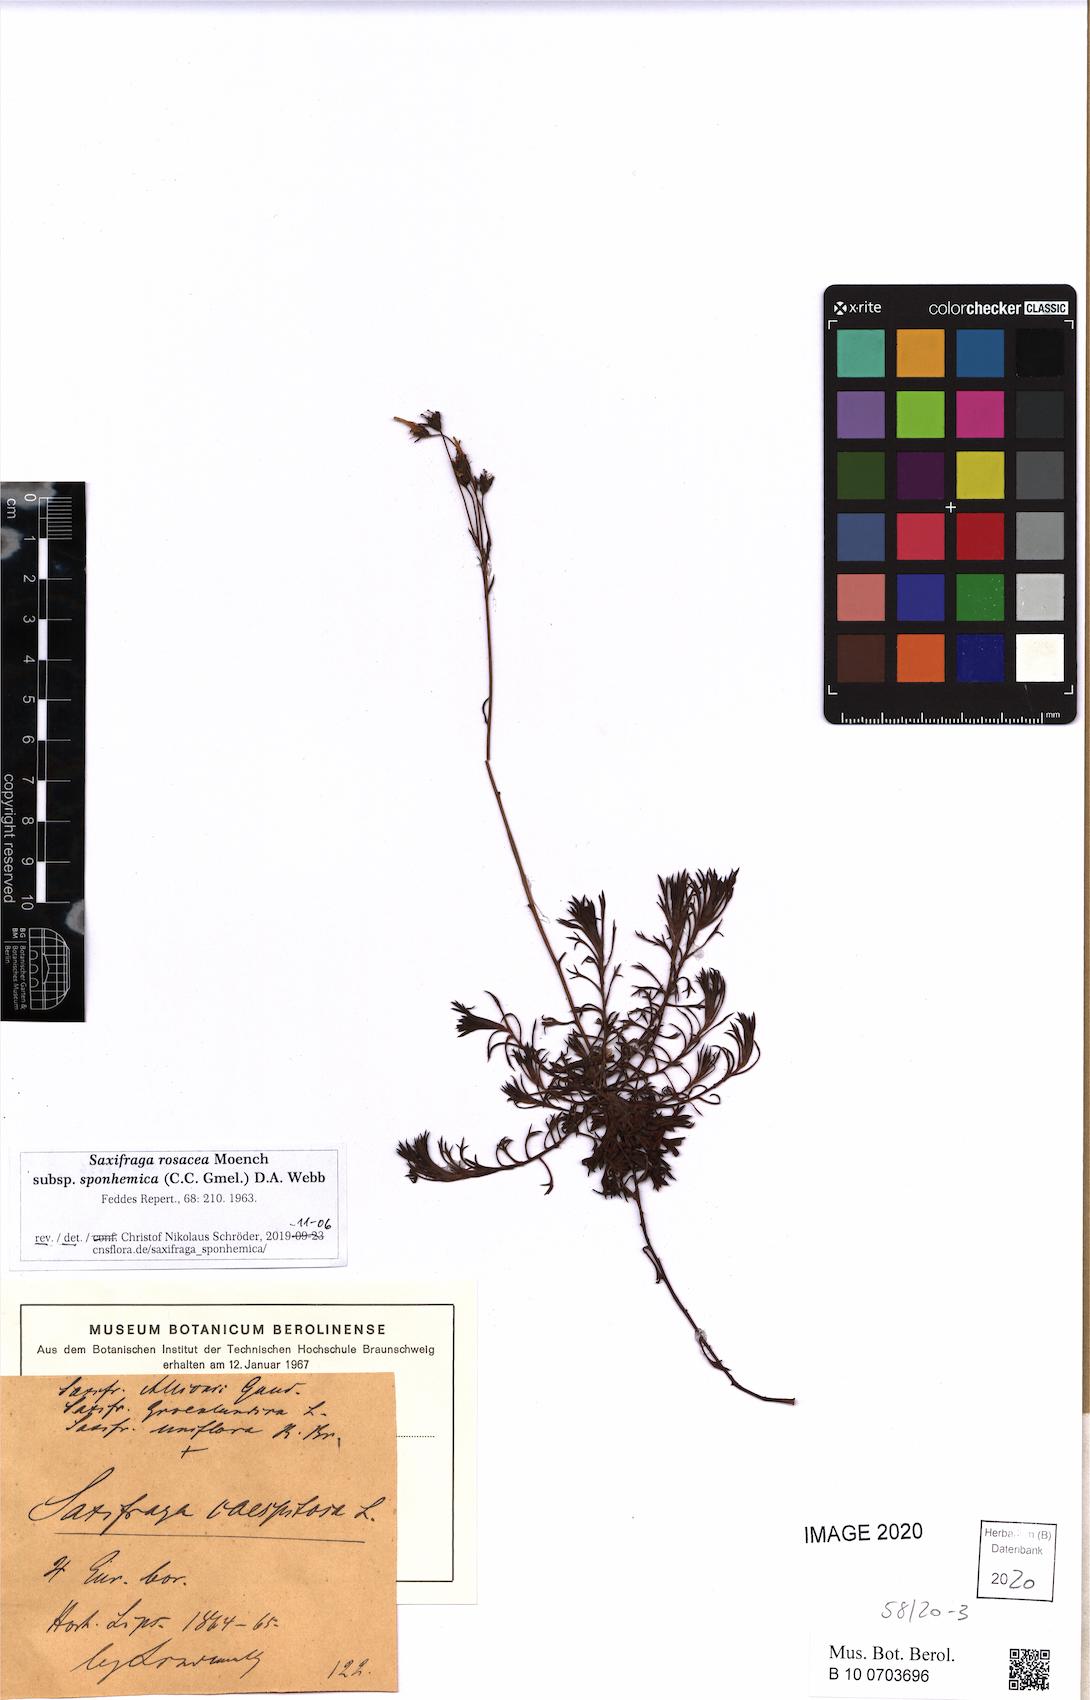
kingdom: Plantae
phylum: Tracheophyta
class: Magnoliopsida
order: Saxifragales
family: Saxifragaceae
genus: Saxifraga
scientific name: Saxifraga rosacea
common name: Irish saxifrage
